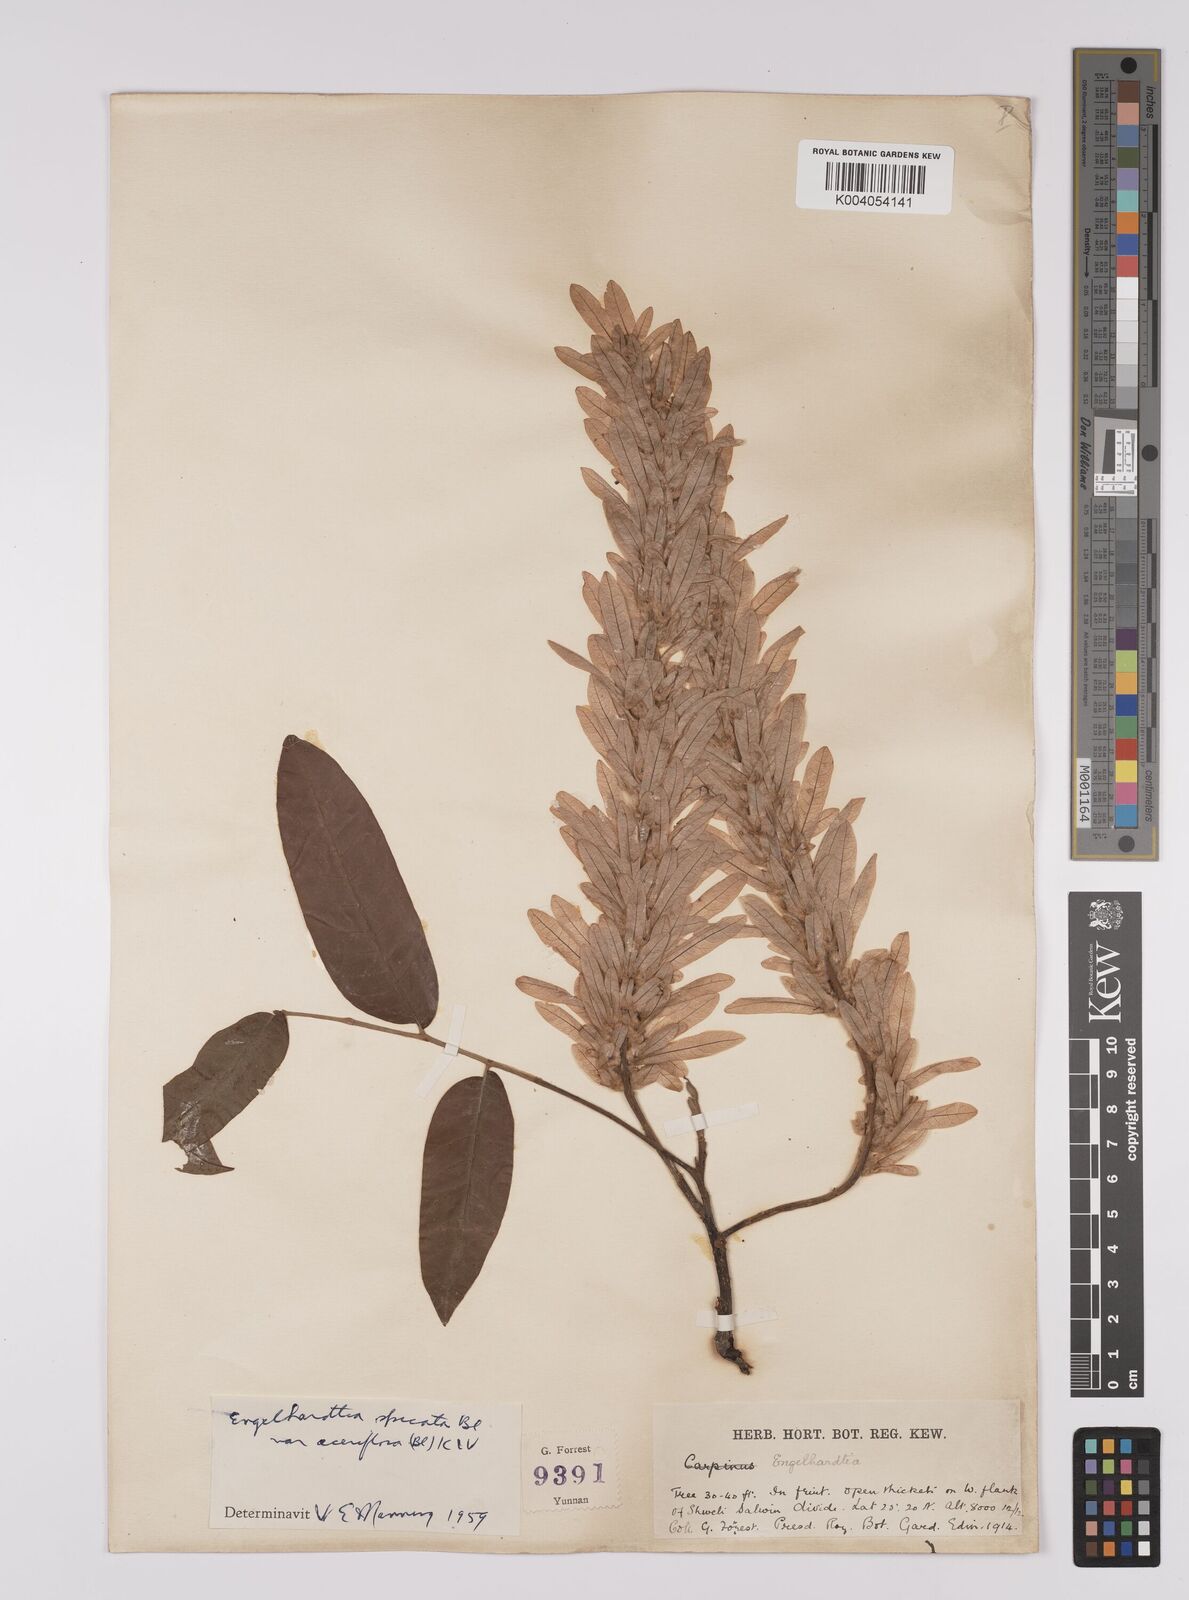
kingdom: Plantae
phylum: Tracheophyta
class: Magnoliopsida
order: Fagales
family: Juglandaceae
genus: Engelhardia
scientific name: Engelhardia spicata
